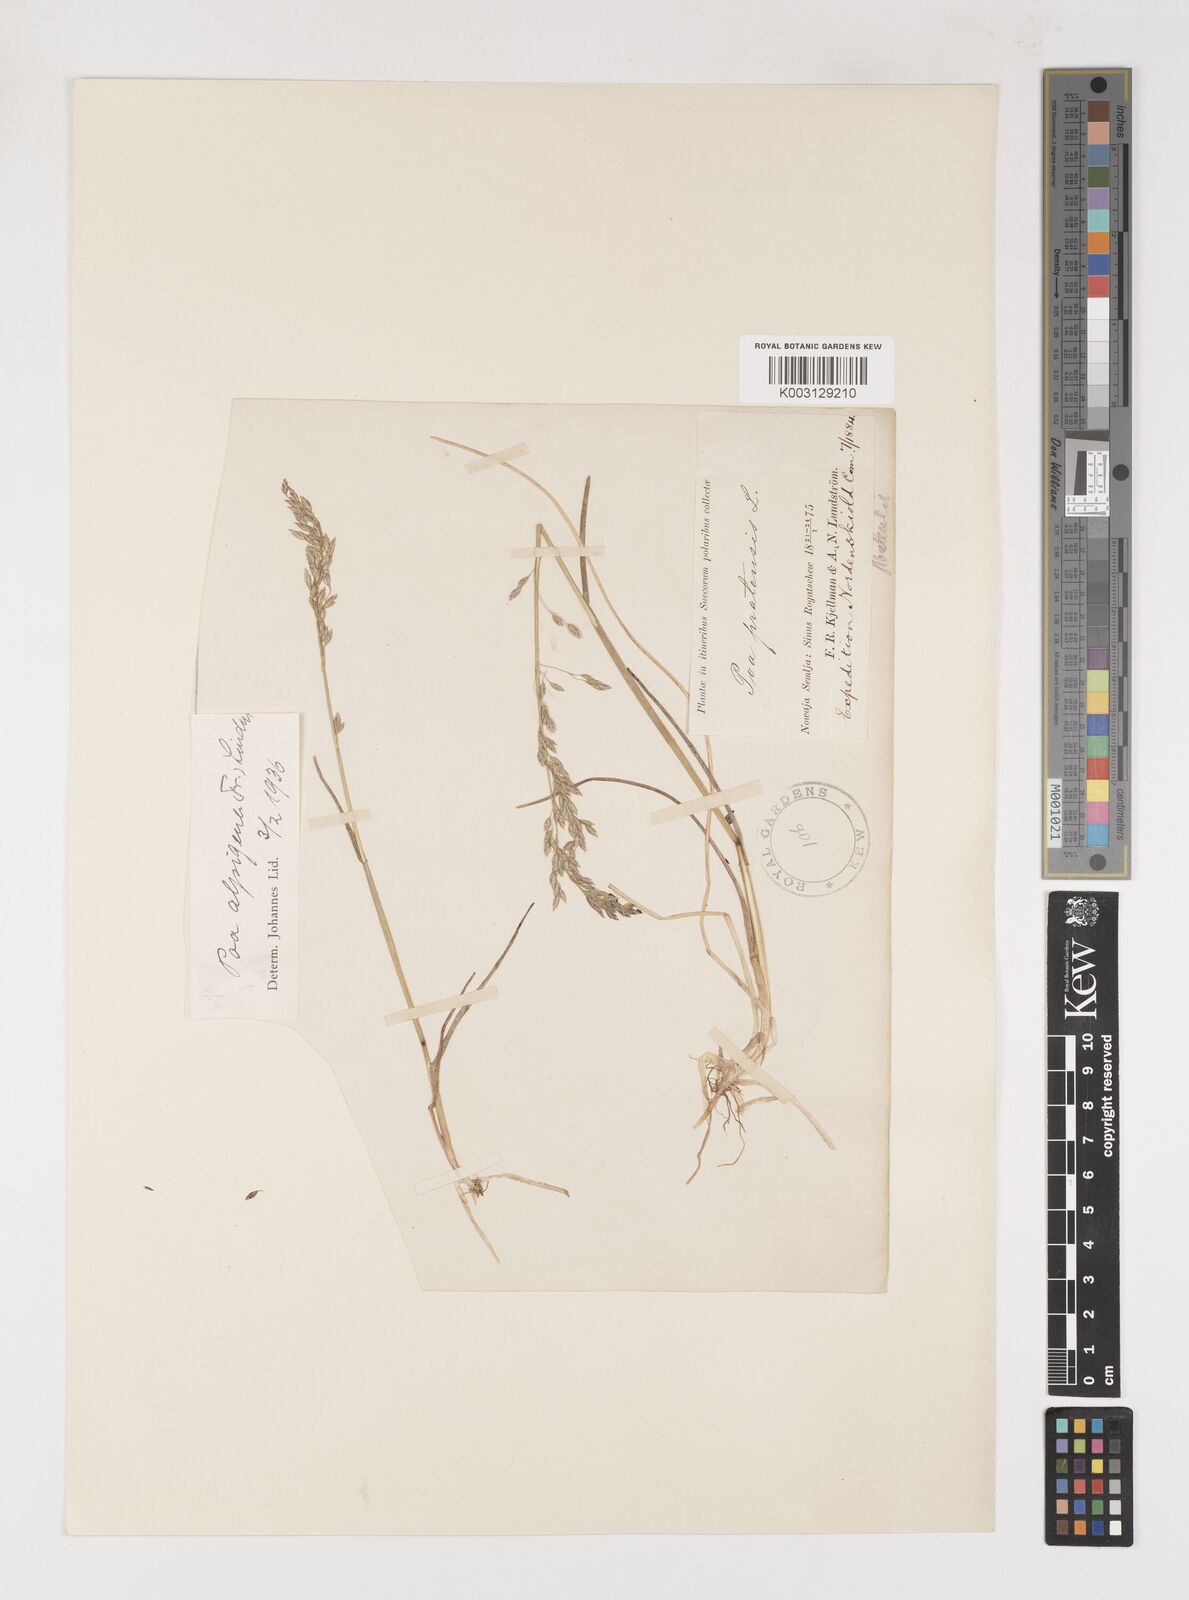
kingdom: Plantae
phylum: Tracheophyta
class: Liliopsida
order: Poales
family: Poaceae
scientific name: Poaceae
